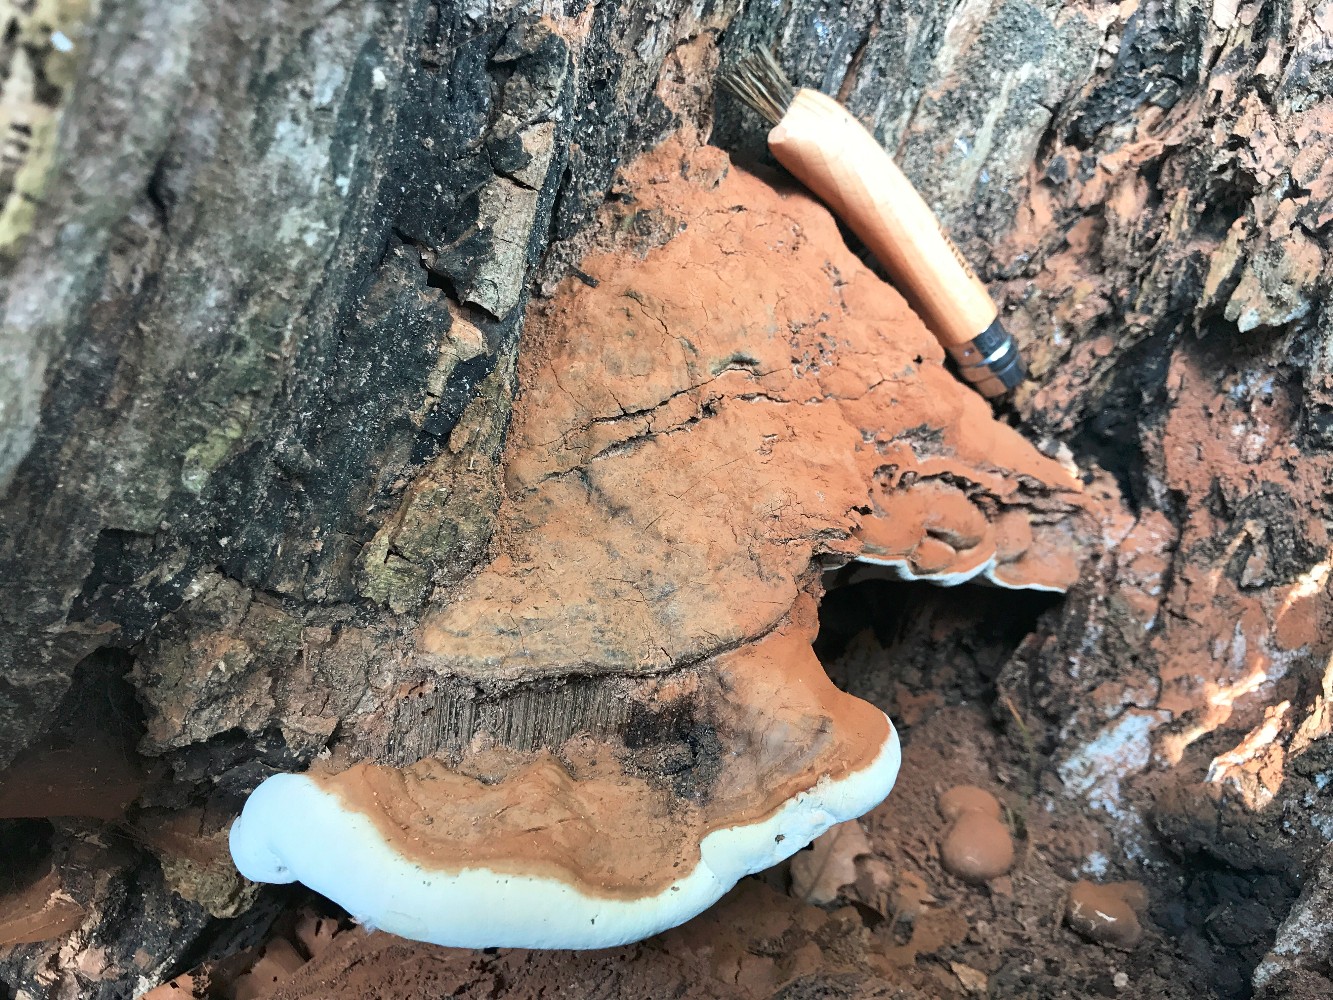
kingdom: Fungi
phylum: Basidiomycota
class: Agaricomycetes
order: Polyporales
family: Polyporaceae
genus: Ganoderma
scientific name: Ganoderma pfeifferi
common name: kobberrød lakporesvamp
